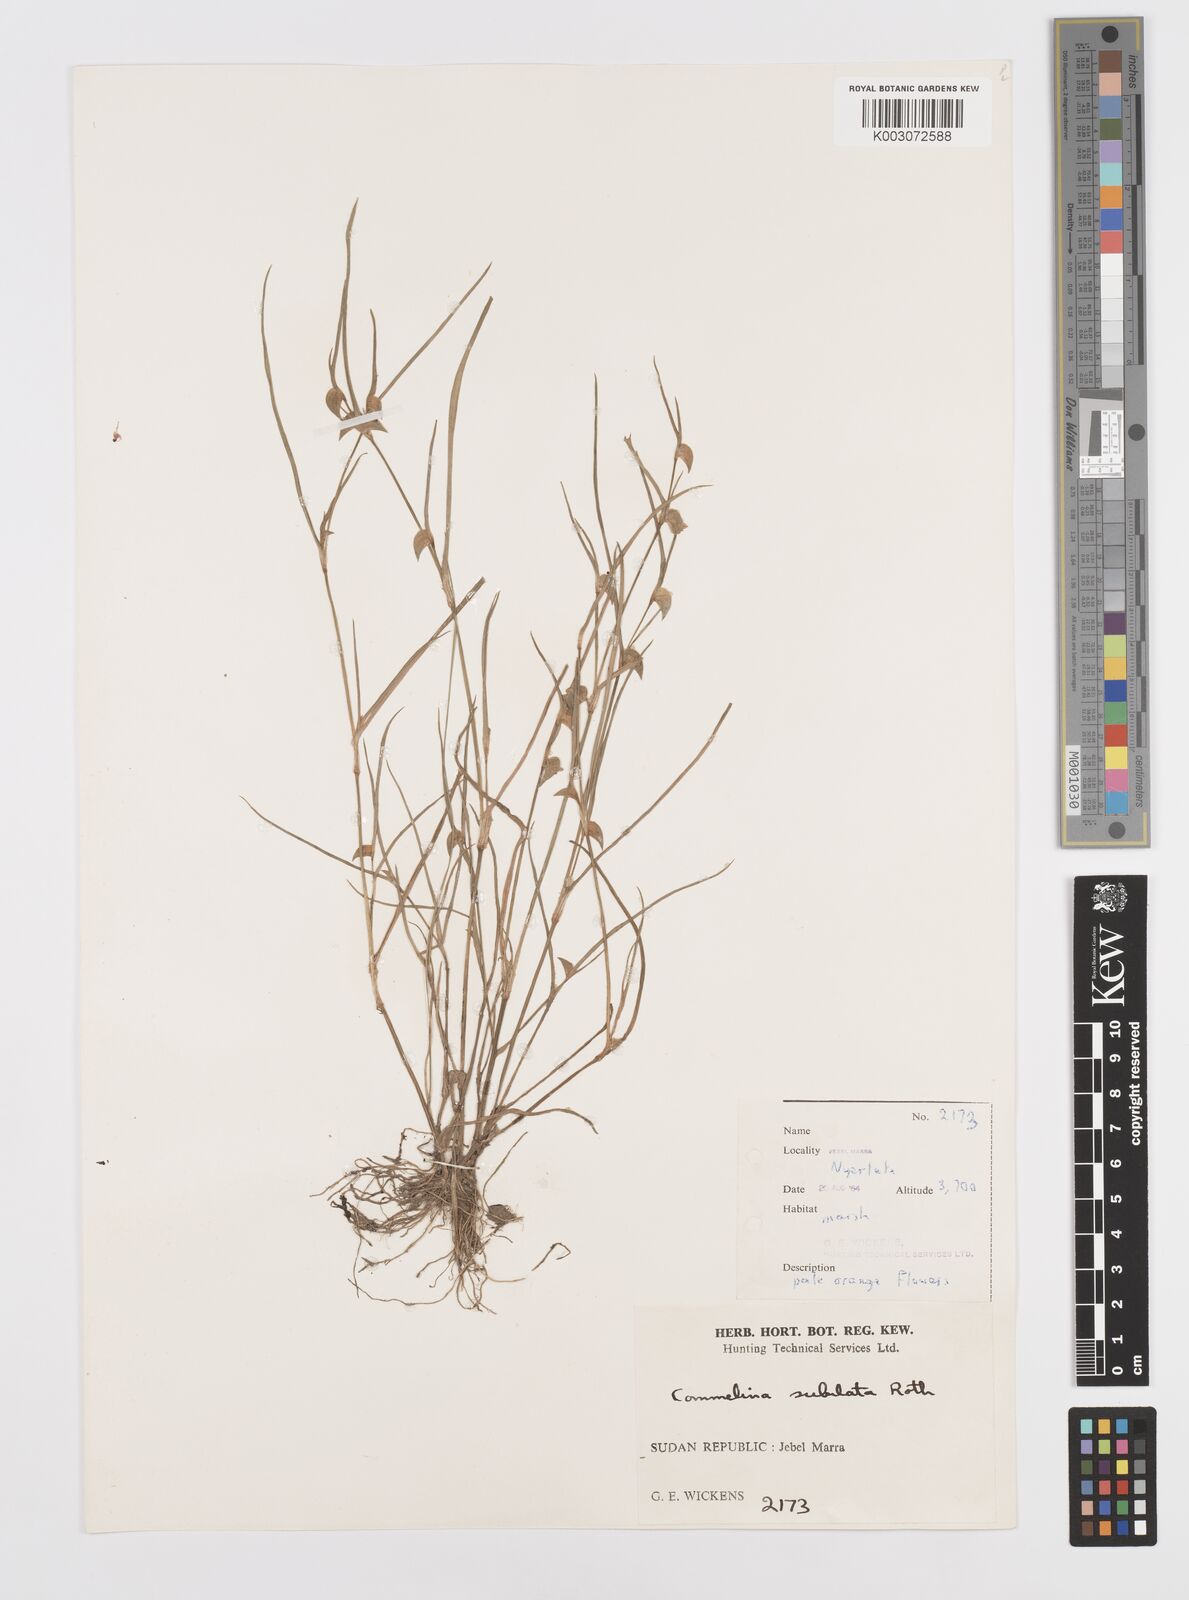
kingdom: Plantae
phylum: Tracheophyta
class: Liliopsida
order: Commelinales
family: Commelinaceae
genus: Commelina
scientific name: Commelina subulata
